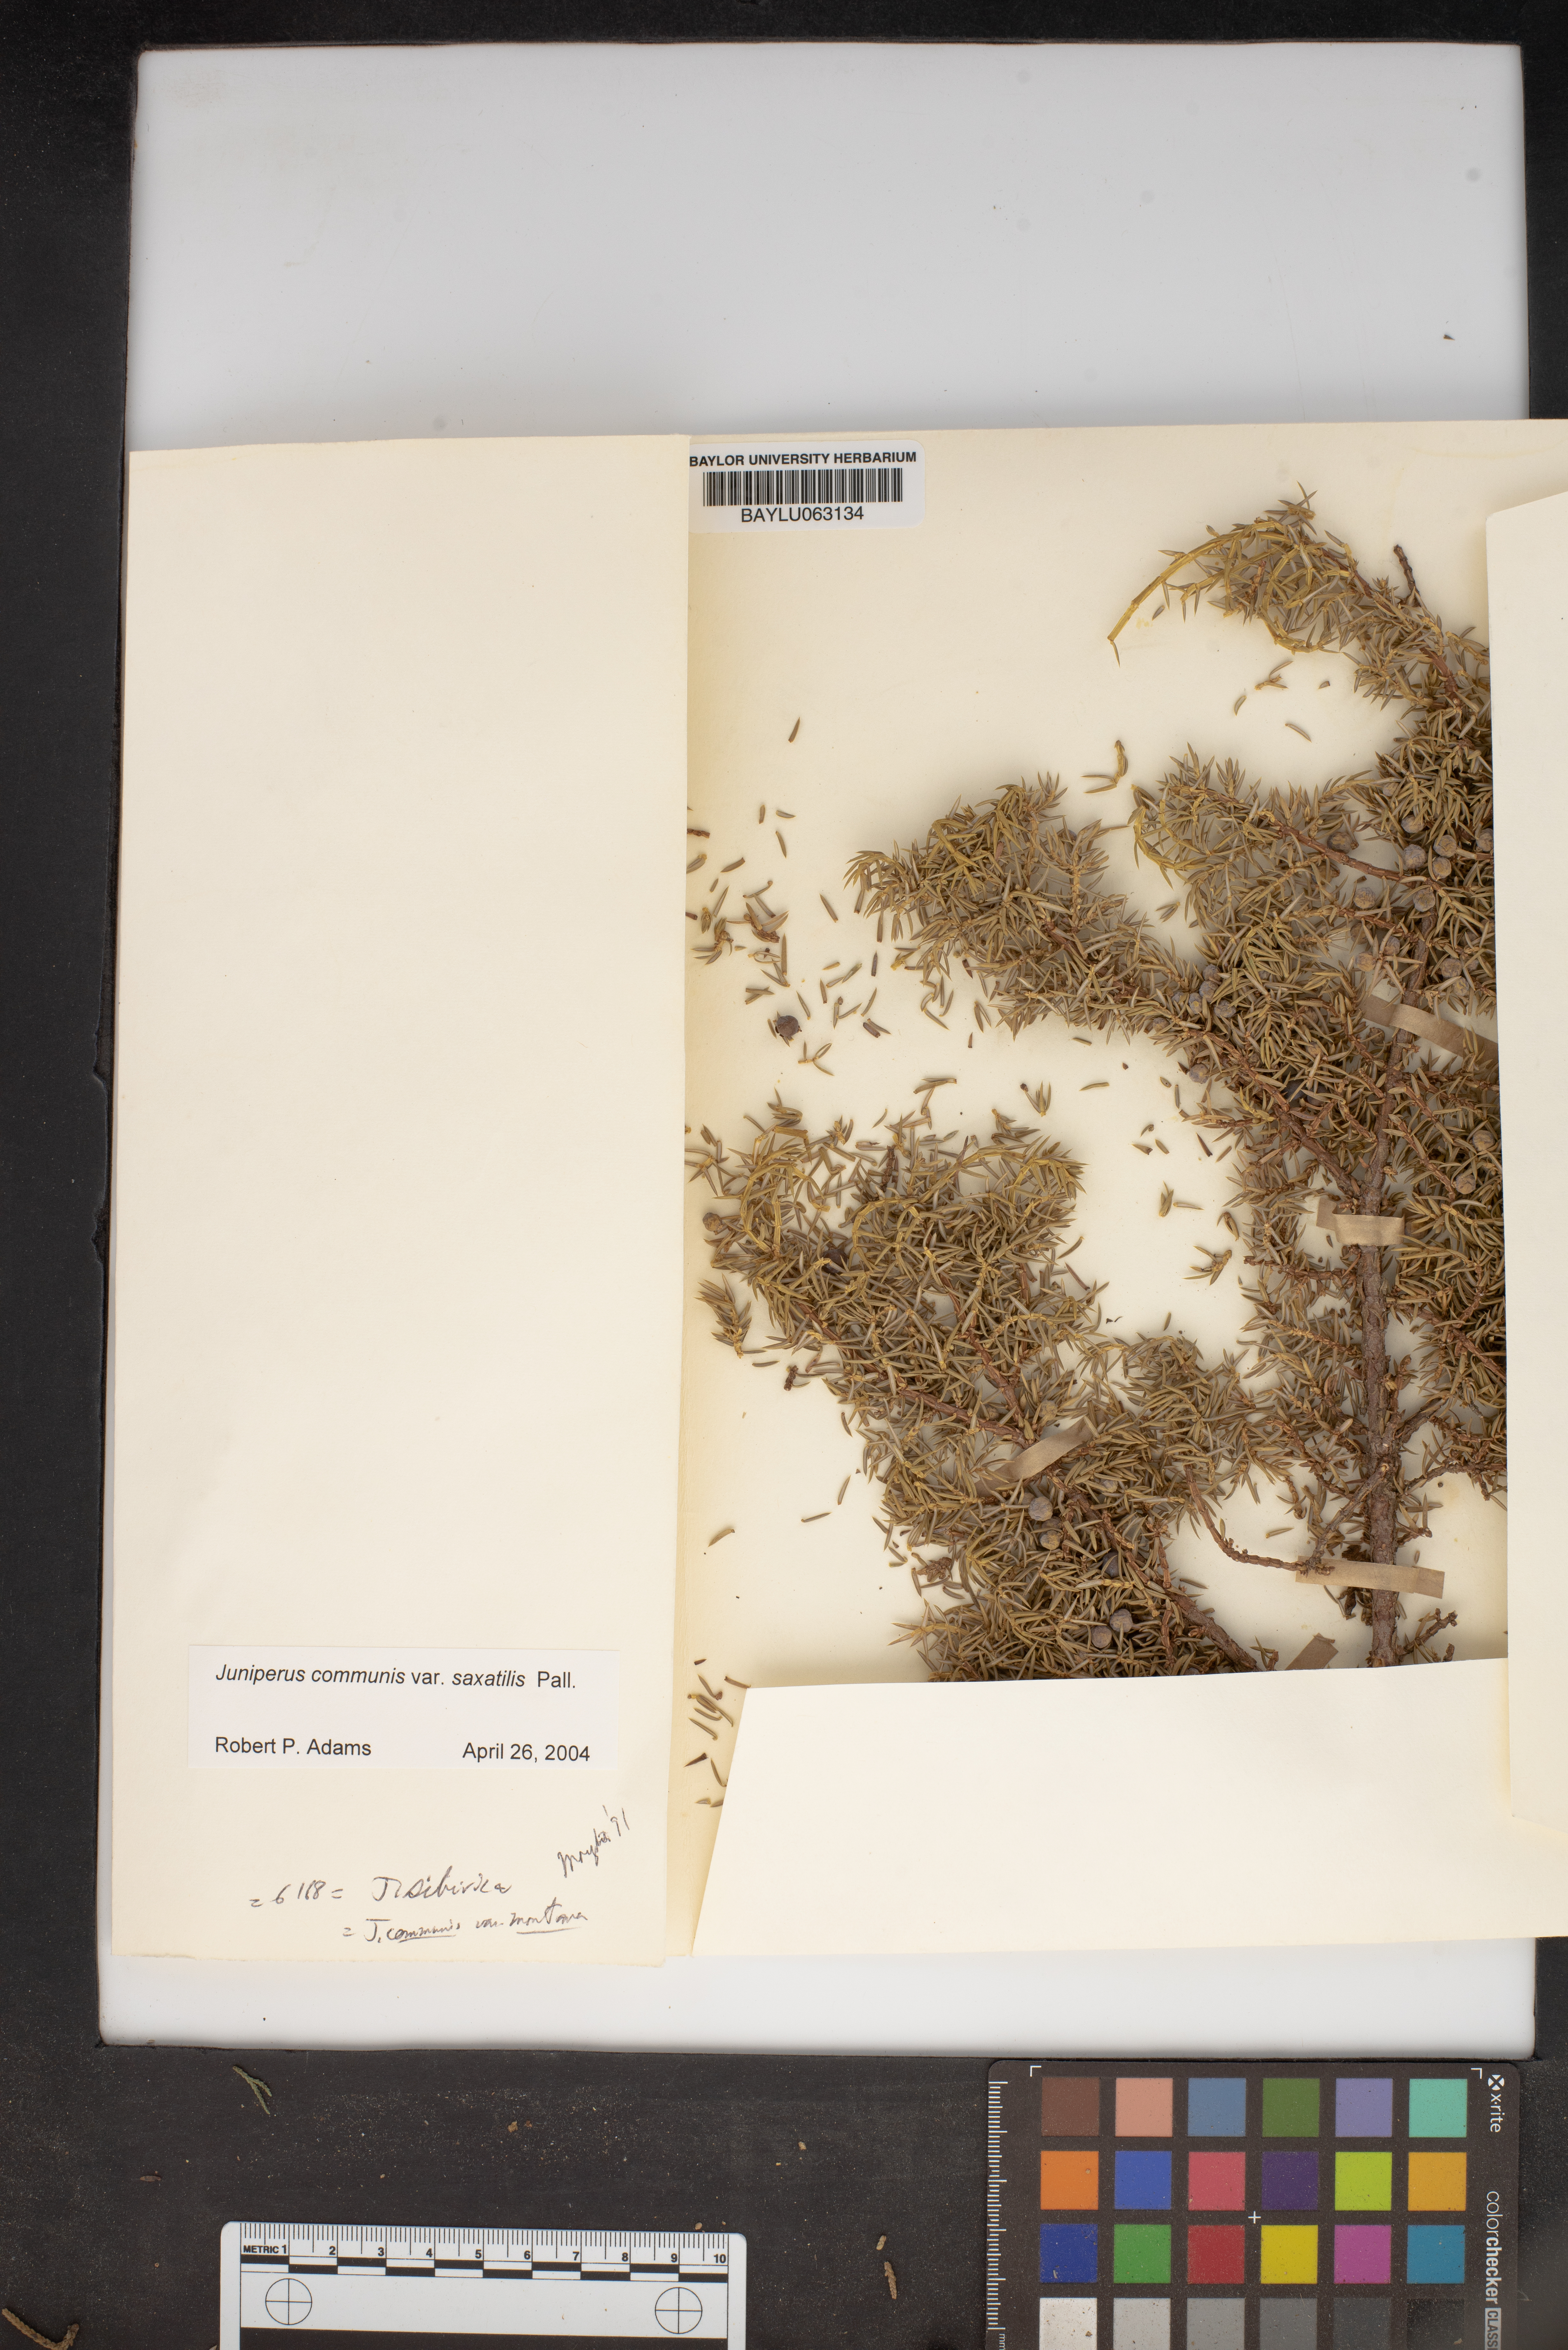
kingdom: Plantae
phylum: Tracheophyta
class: Pinopsida
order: Pinales
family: Cupressaceae
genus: Juniperus
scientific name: Juniperus communis
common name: Common juniper
